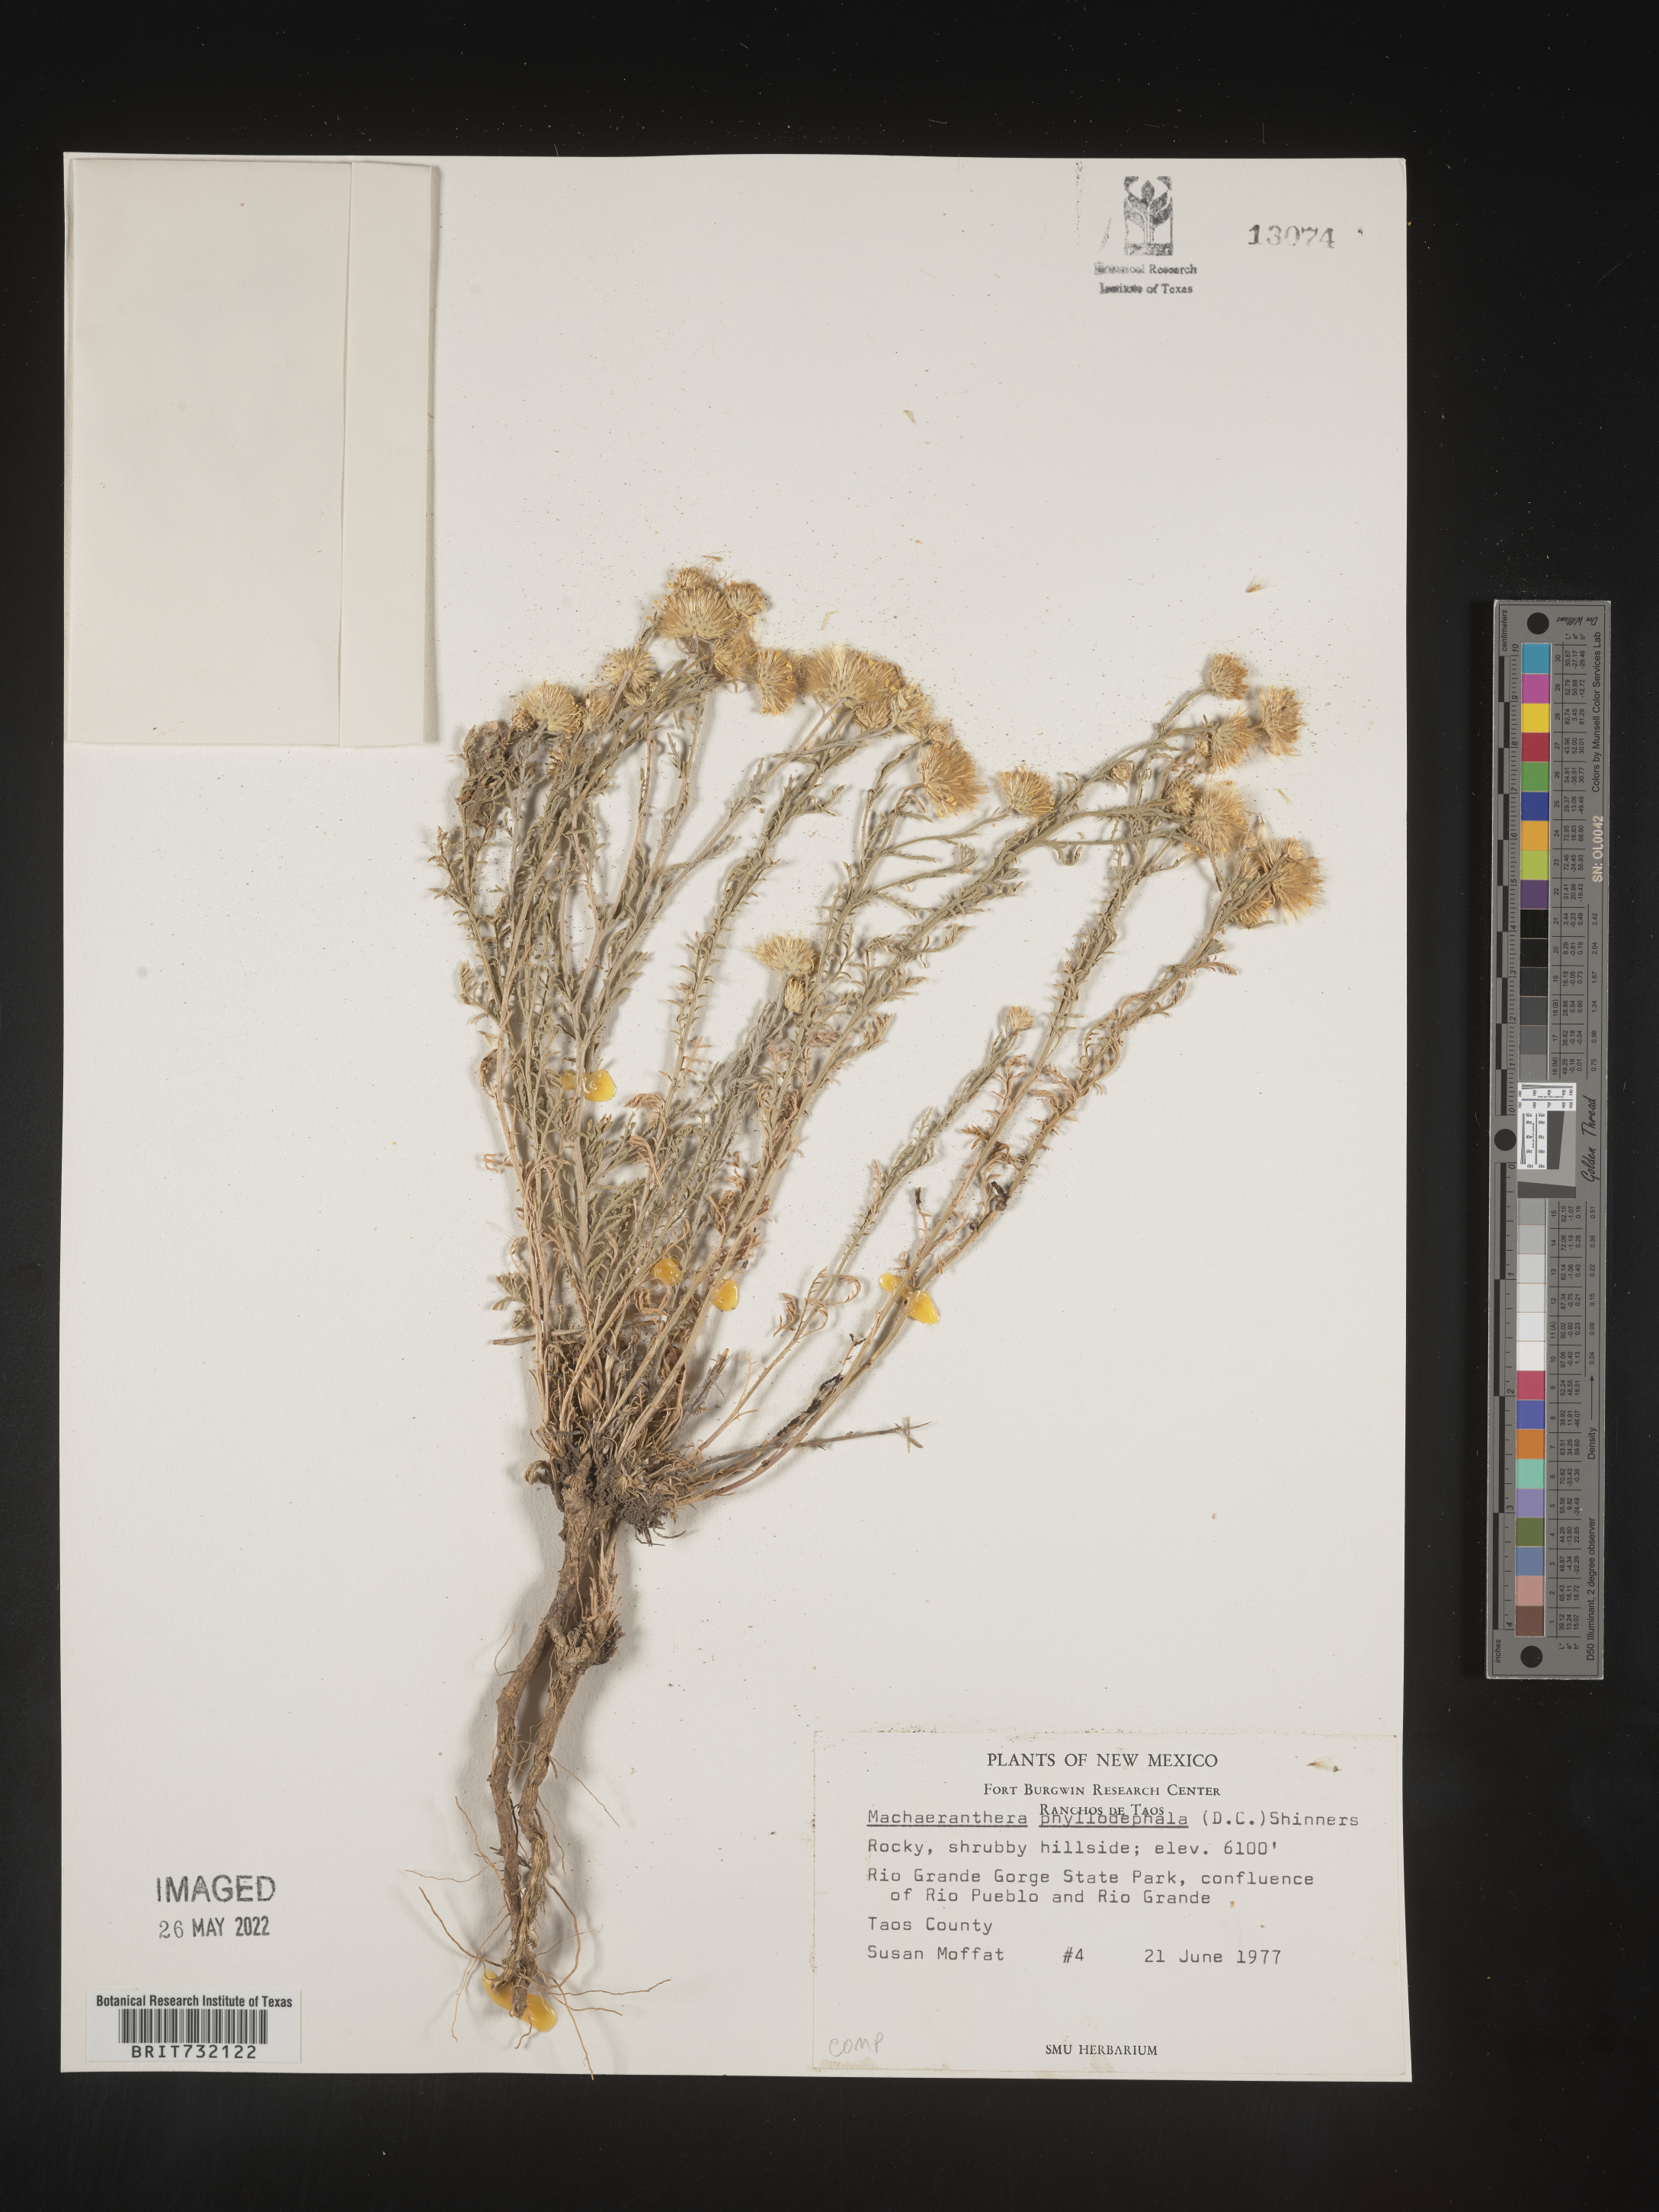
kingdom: Plantae
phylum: Tracheophyta
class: Magnoliopsida
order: Asterales
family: Asteraceae
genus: Rayjacksonia
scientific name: Rayjacksonia phyllocephala
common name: Gulf coast camphor daisy
